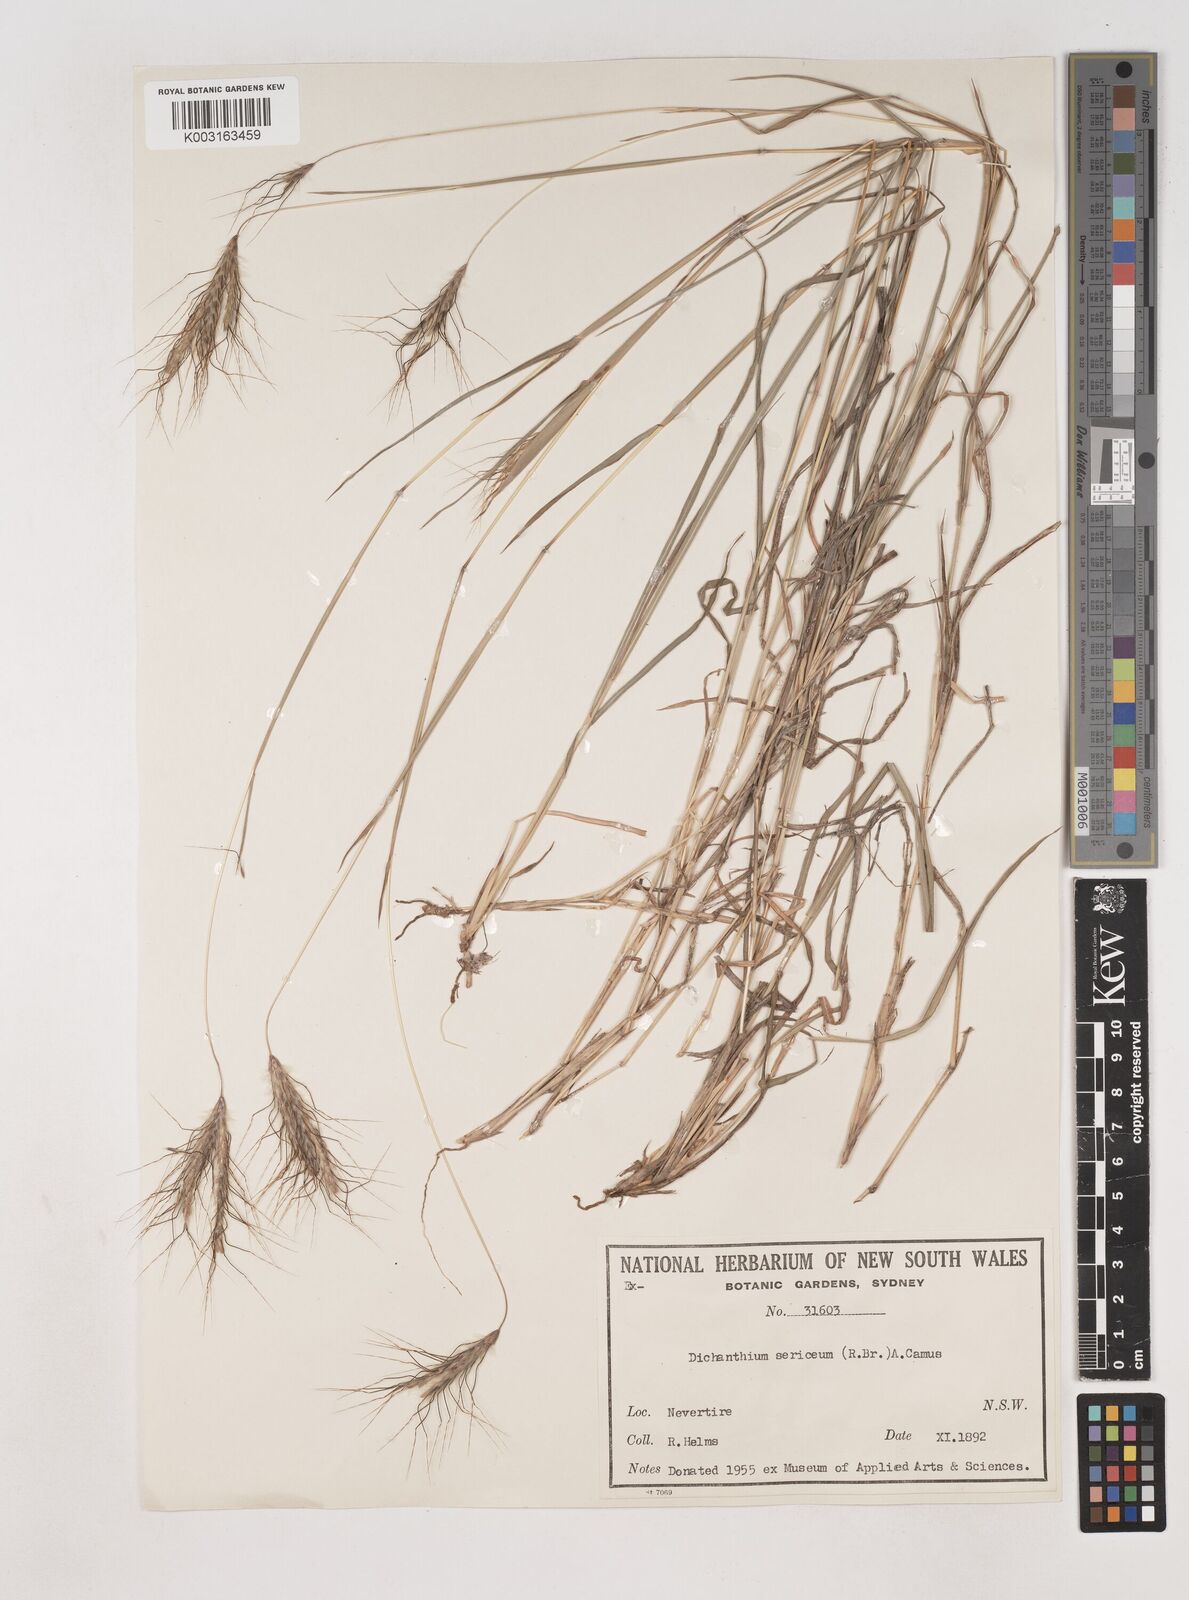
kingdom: Plantae
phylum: Tracheophyta
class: Liliopsida
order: Poales
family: Poaceae
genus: Dichanthium
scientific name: Dichanthium sericeum
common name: Silky bluestem
